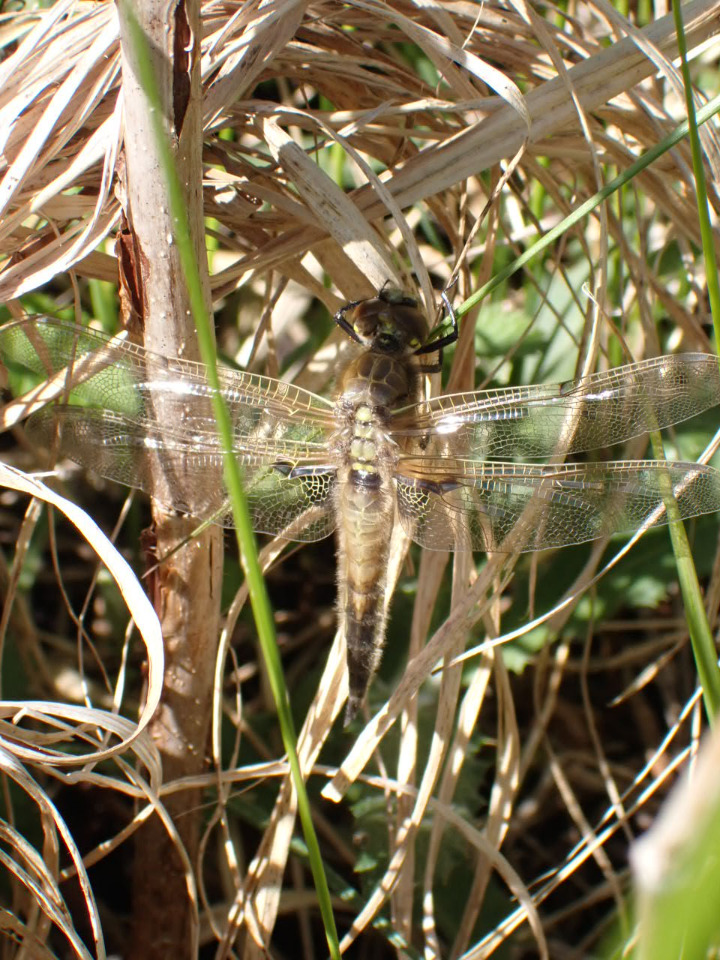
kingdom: Animalia
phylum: Arthropoda
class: Insecta
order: Odonata
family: Libellulidae
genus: Libellula
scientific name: Libellula quadrimaculata
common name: Fireplettet libel
